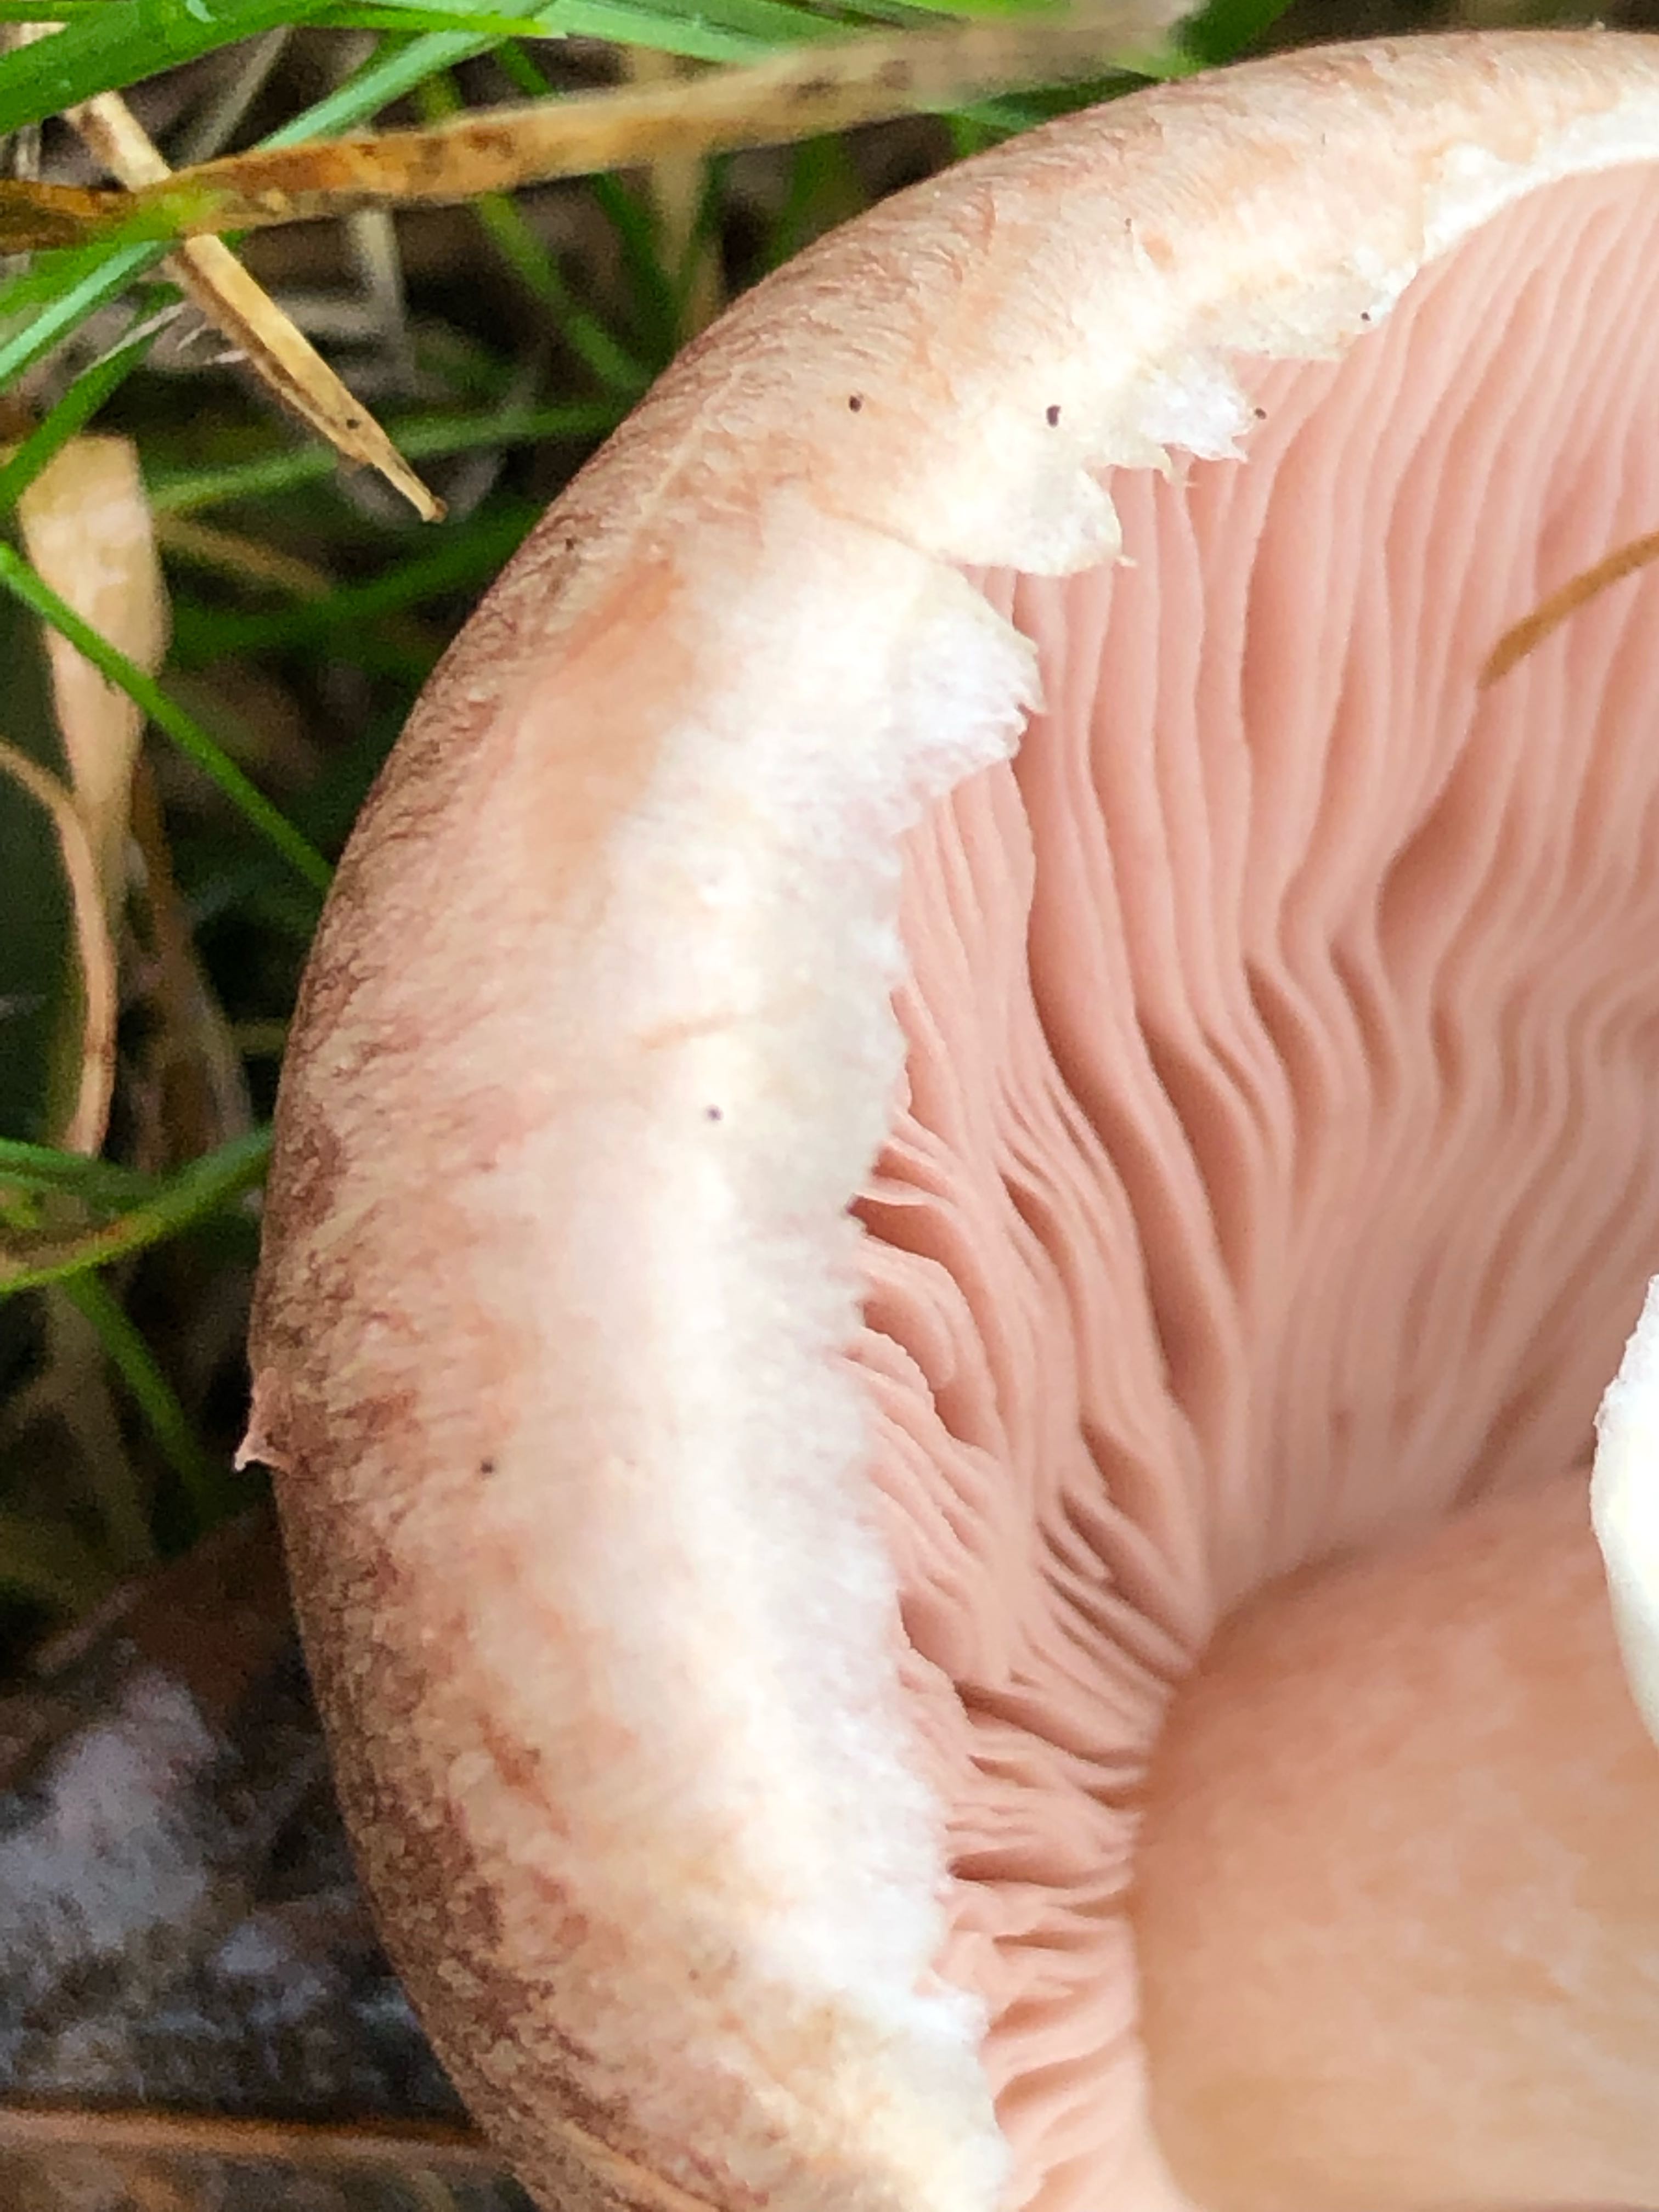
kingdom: Fungi
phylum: Basidiomycota
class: Agaricomycetes
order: Agaricales
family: Agaricaceae
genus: Agaricus
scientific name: Agaricus
